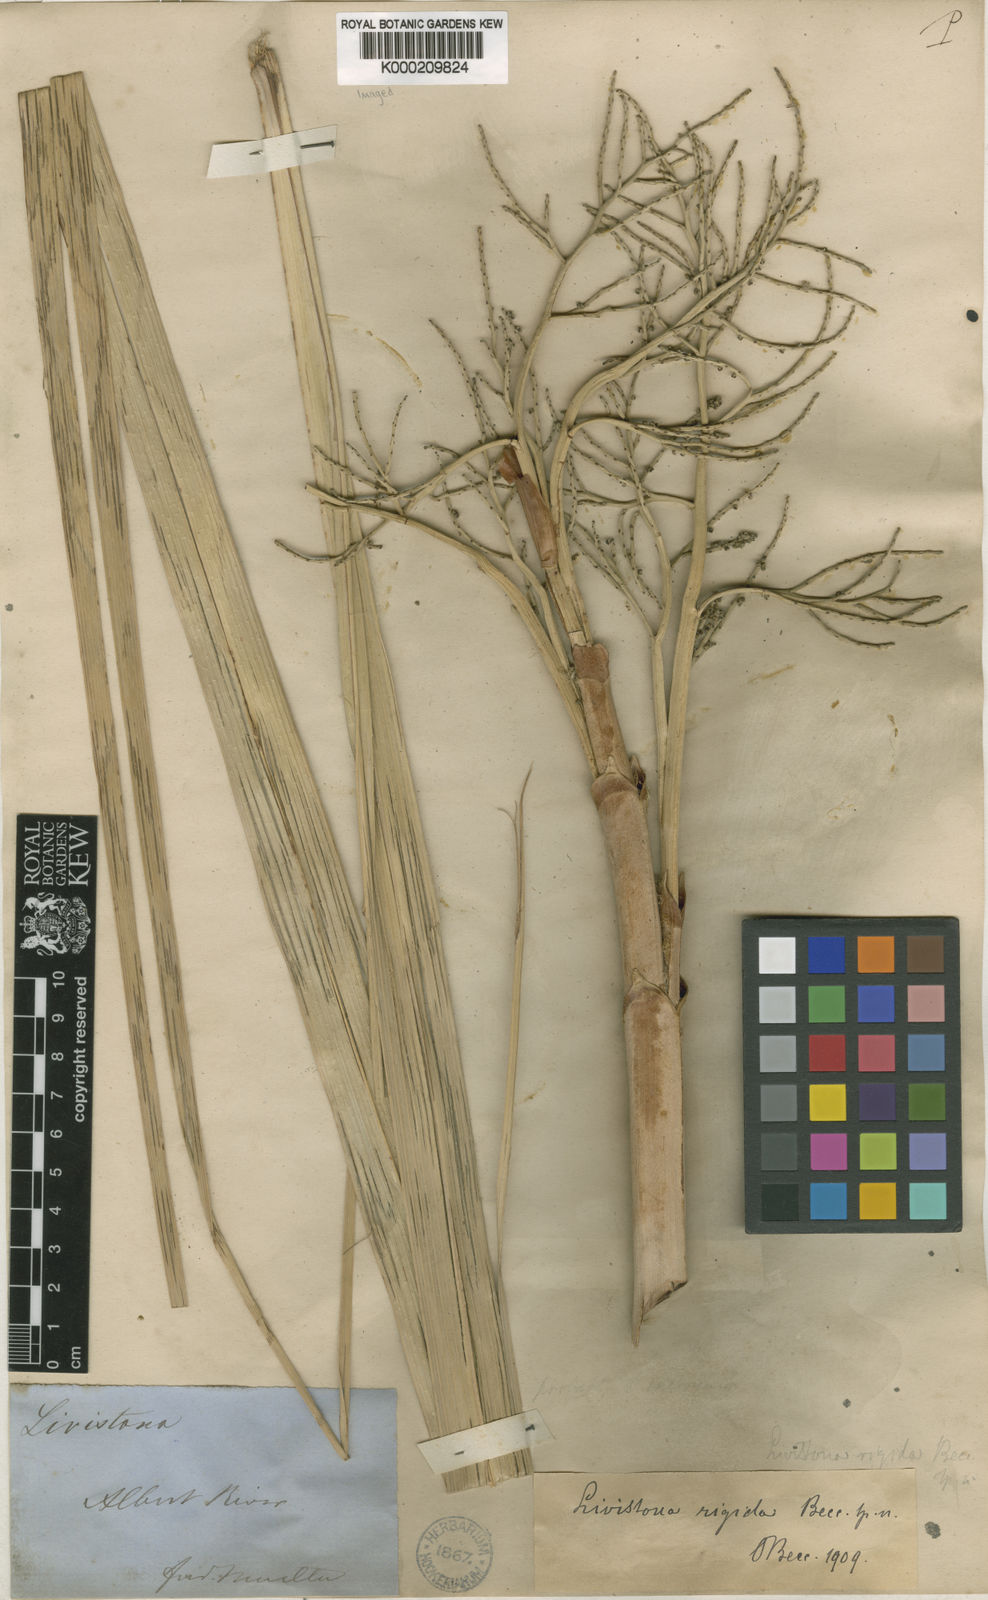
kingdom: Plantae
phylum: Tracheophyta
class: Liliopsida
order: Arecales
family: Arecaceae
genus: Livistona
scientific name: Livistona rigida
